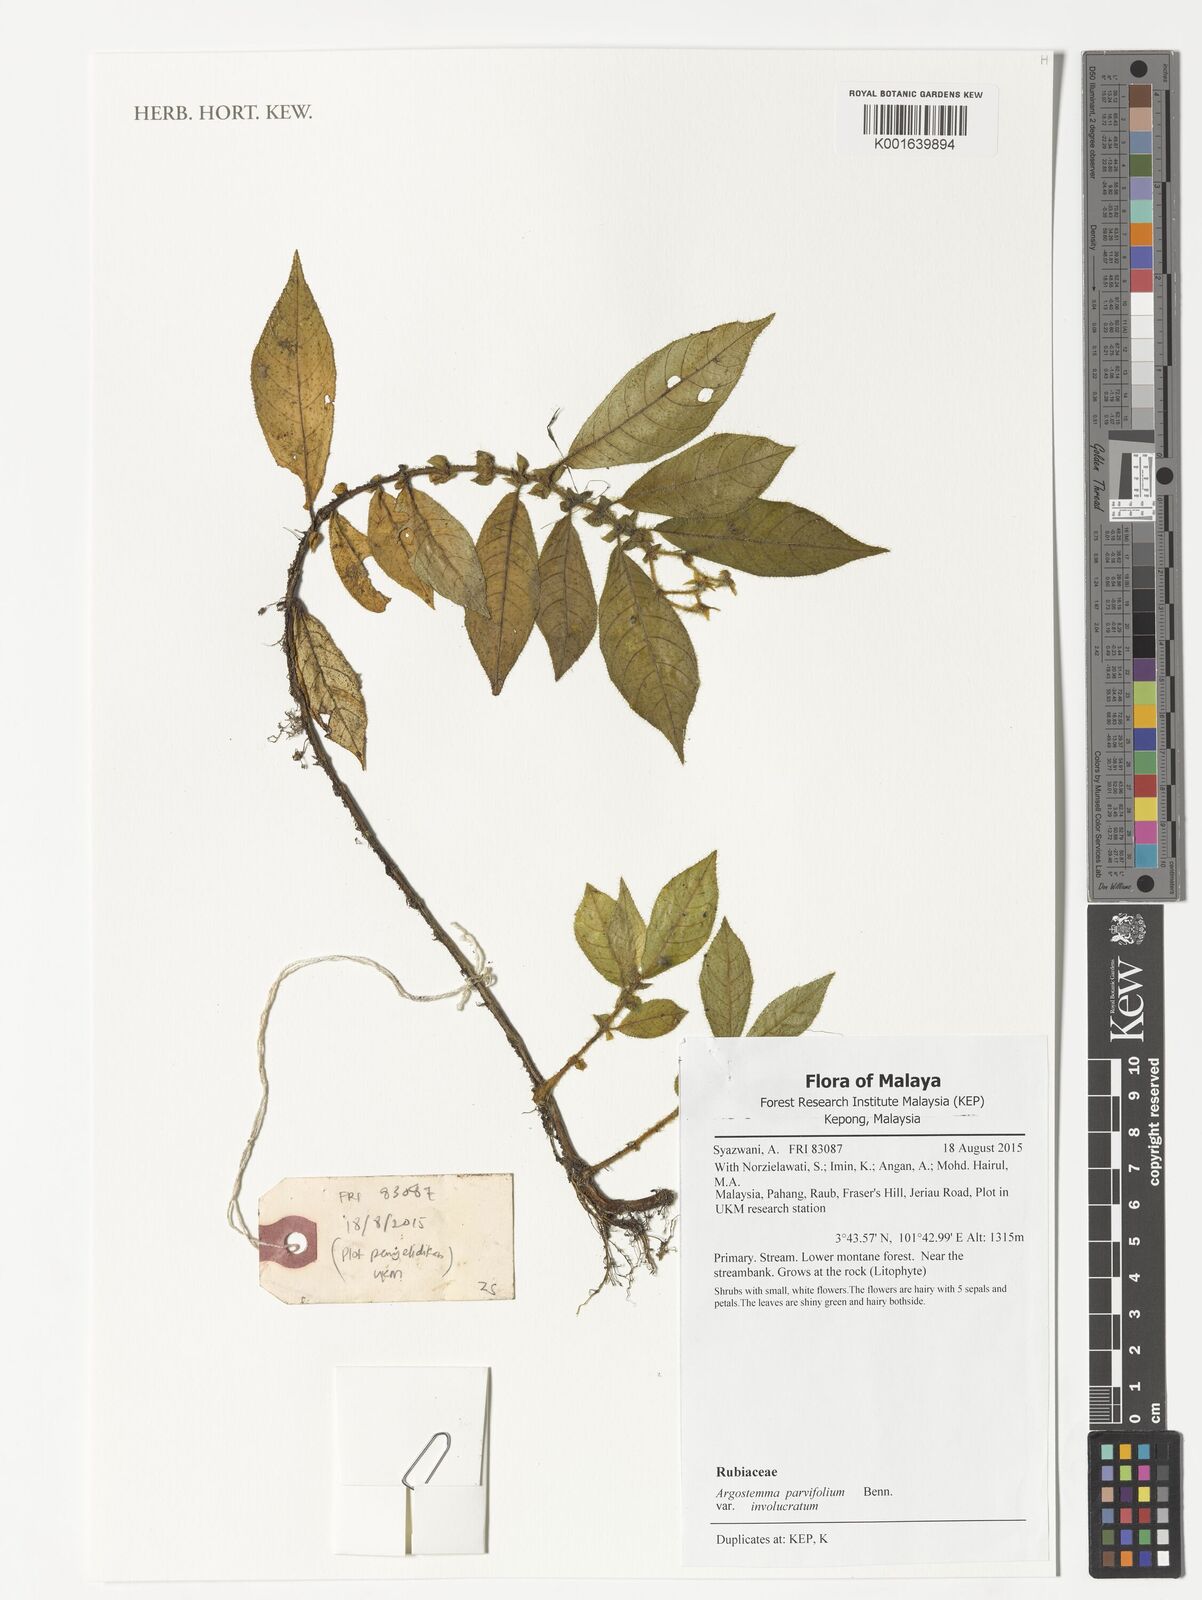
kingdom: Plantae
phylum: Tracheophyta
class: Magnoliopsida
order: Gentianales
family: Rubiaceae
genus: Argostemma
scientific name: Argostemma parvifolium
